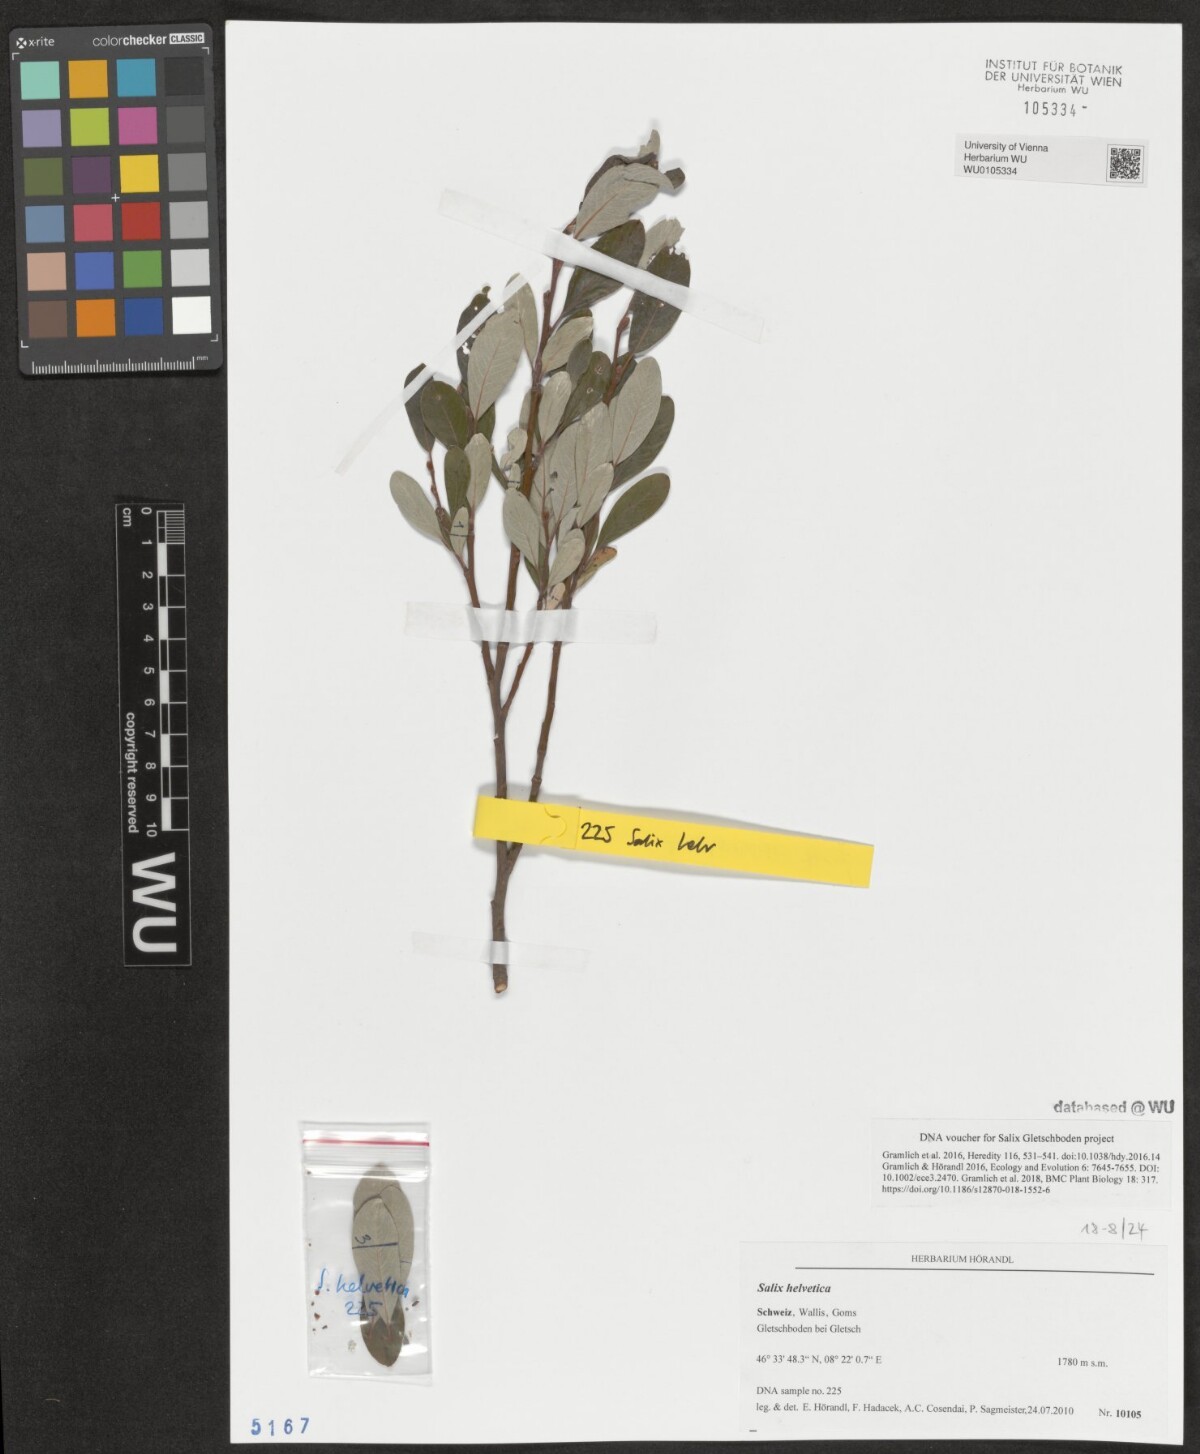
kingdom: Plantae
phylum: Tracheophyta
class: Magnoliopsida
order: Malpighiales
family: Salicaceae
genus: Salix
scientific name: Salix helvetica
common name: Swiss willow
